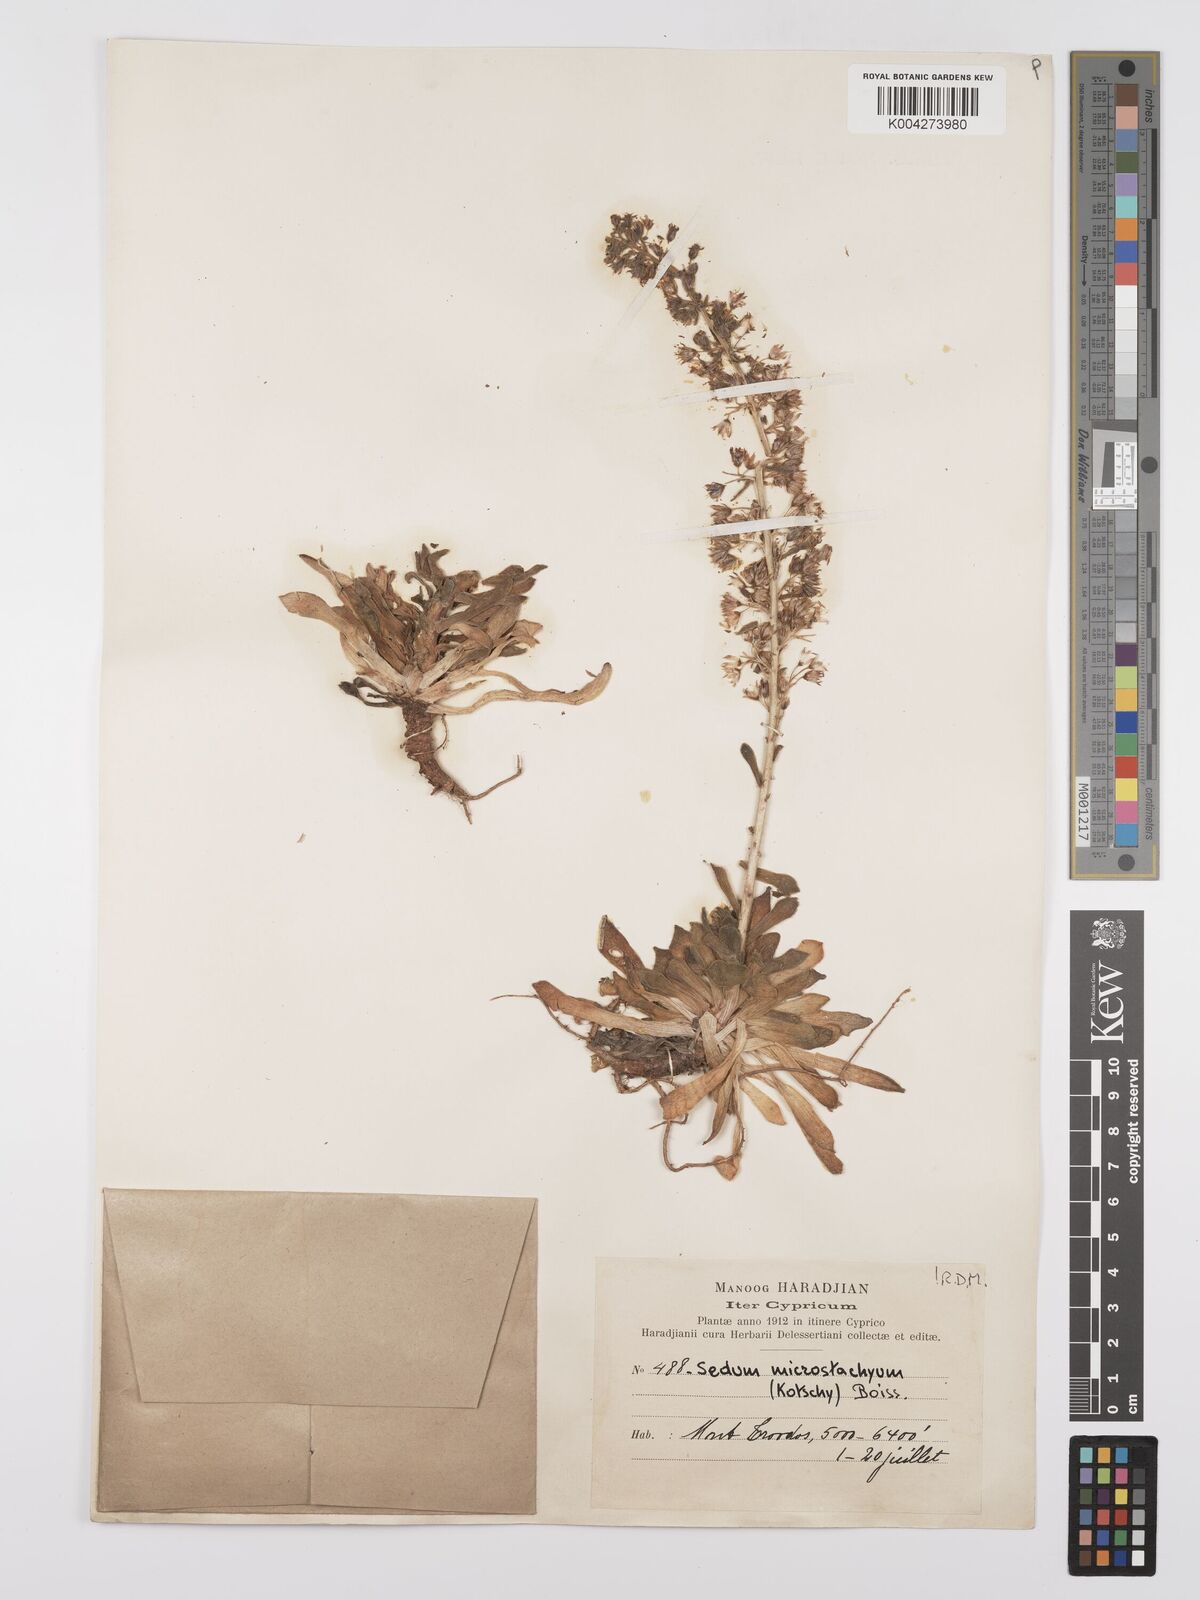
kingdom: Plantae
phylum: Tracheophyta
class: Magnoliopsida
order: Saxifragales
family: Crassulaceae
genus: Sedum
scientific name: Sedum microstachyum
